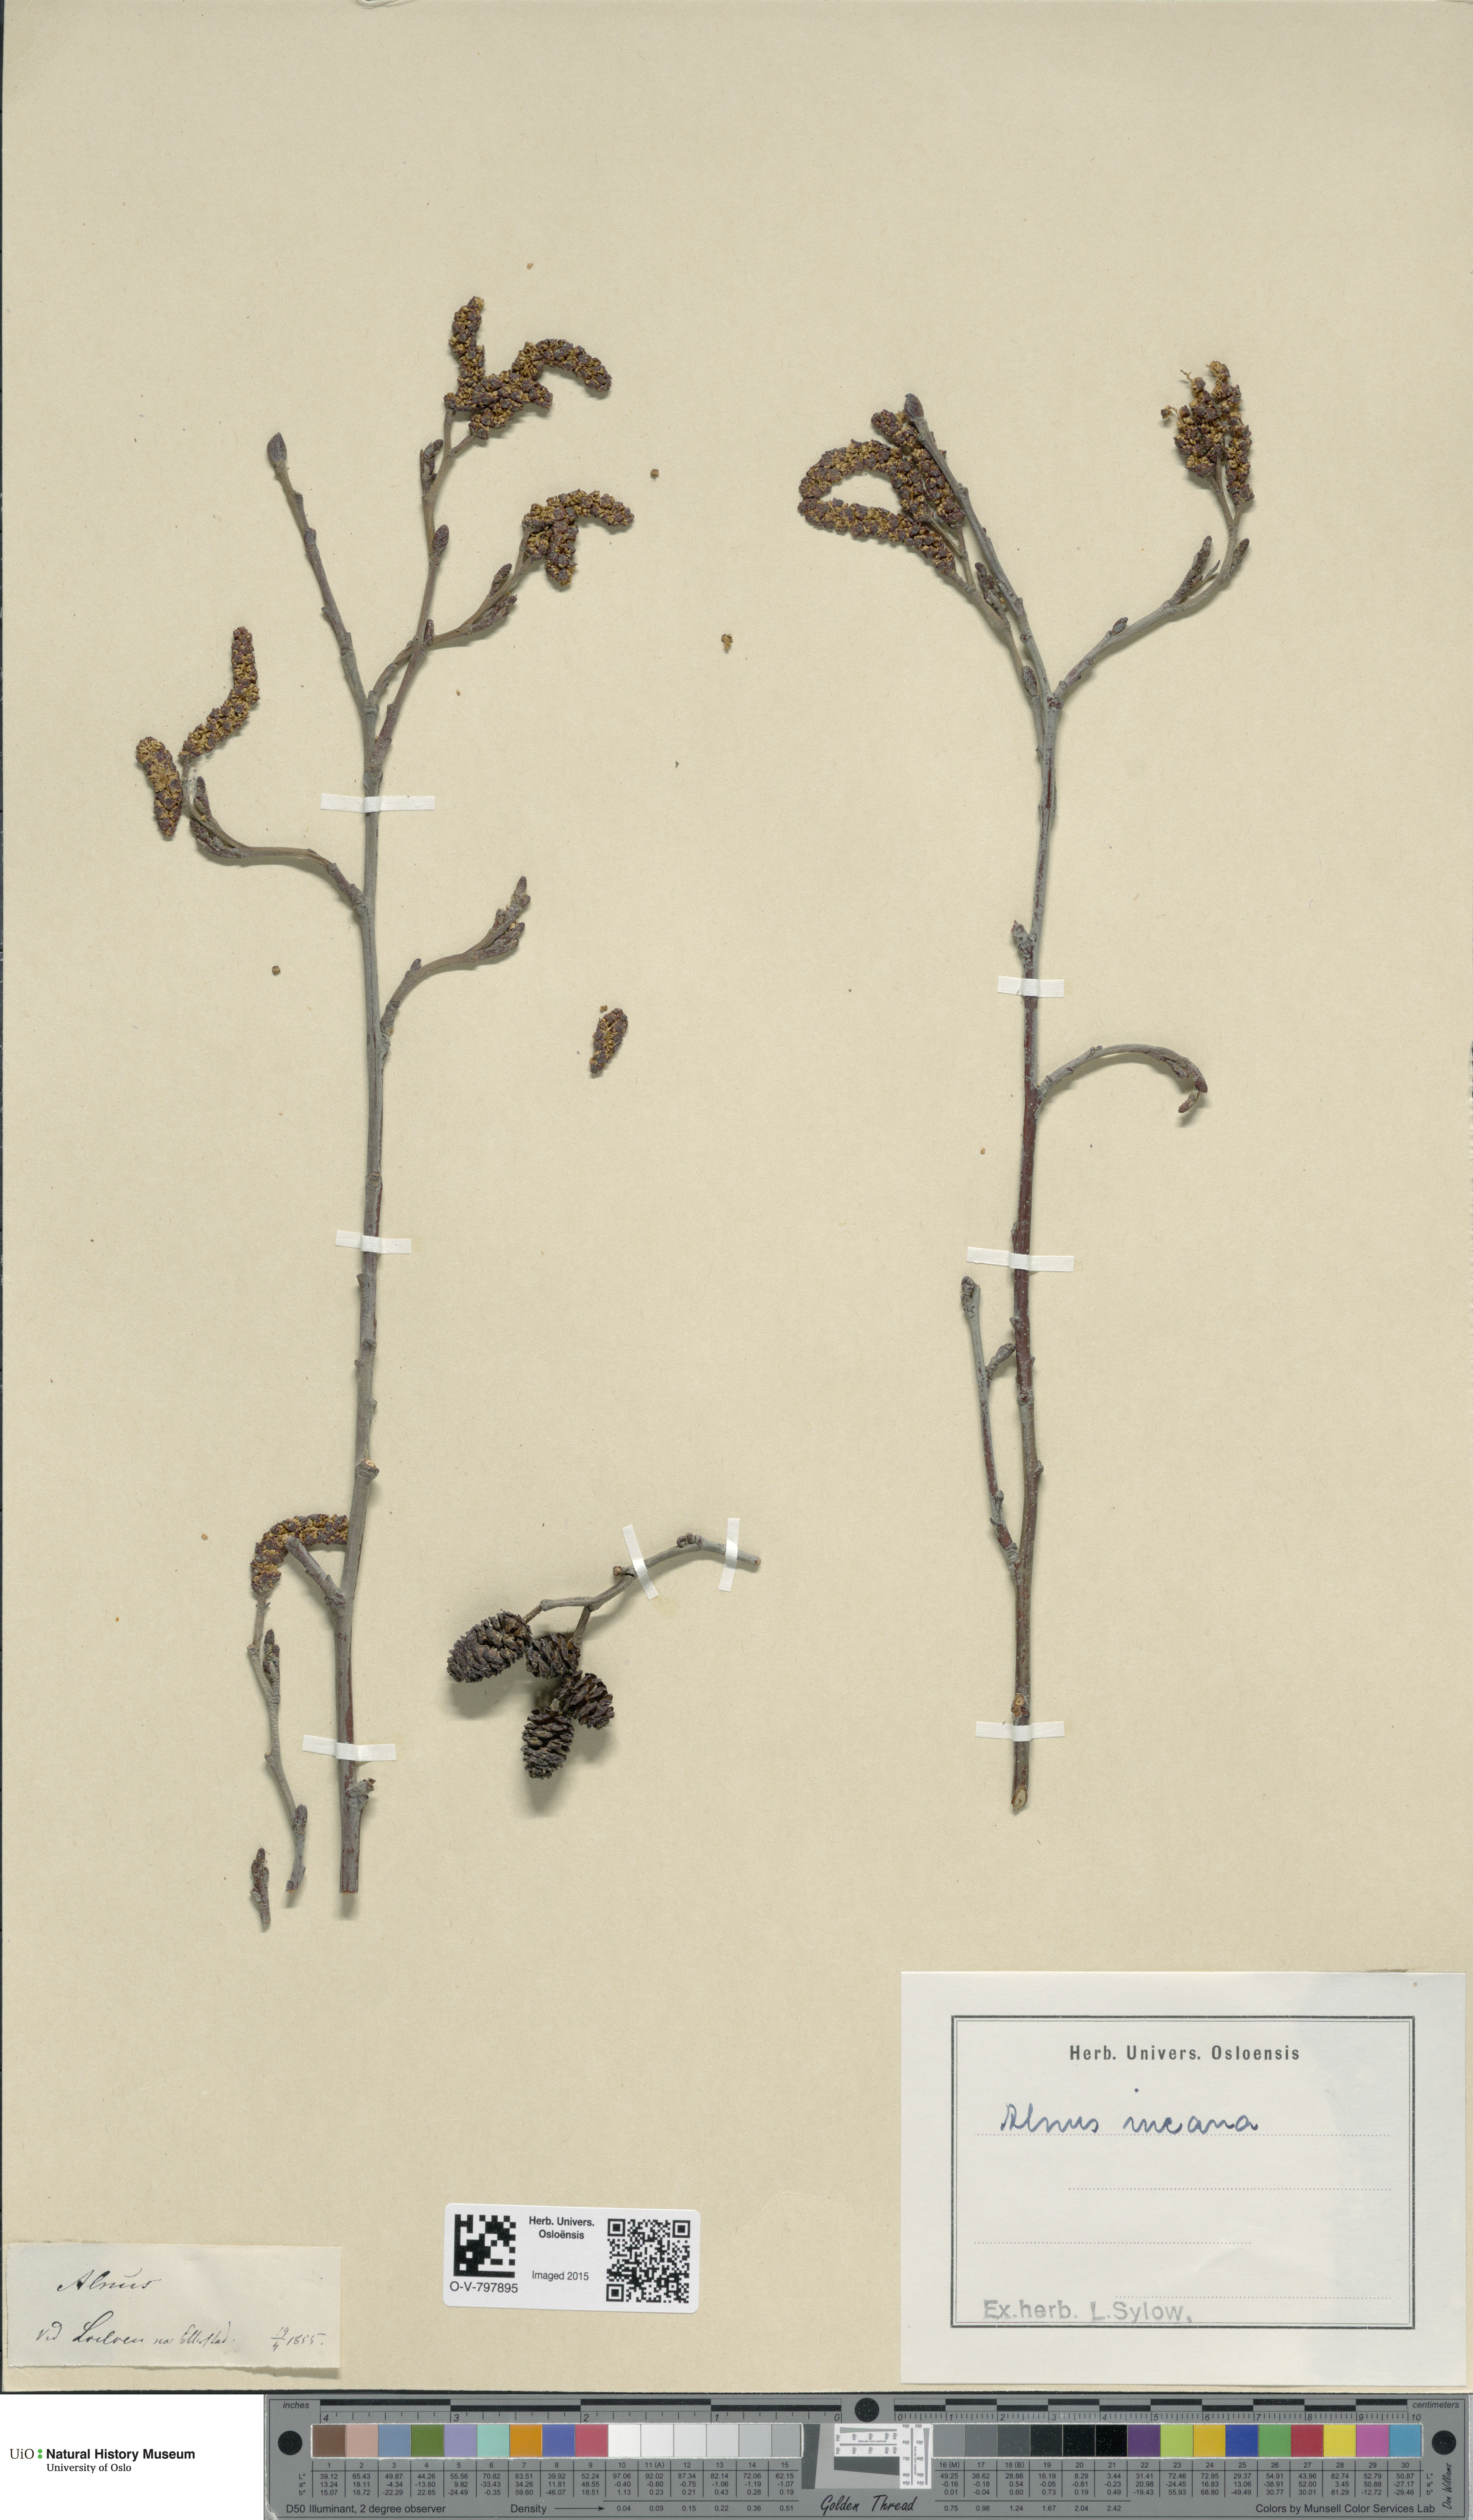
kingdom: Plantae
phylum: Tracheophyta
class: Magnoliopsida
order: Fagales
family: Betulaceae
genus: Alnus
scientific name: Alnus incana
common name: Grey alder
